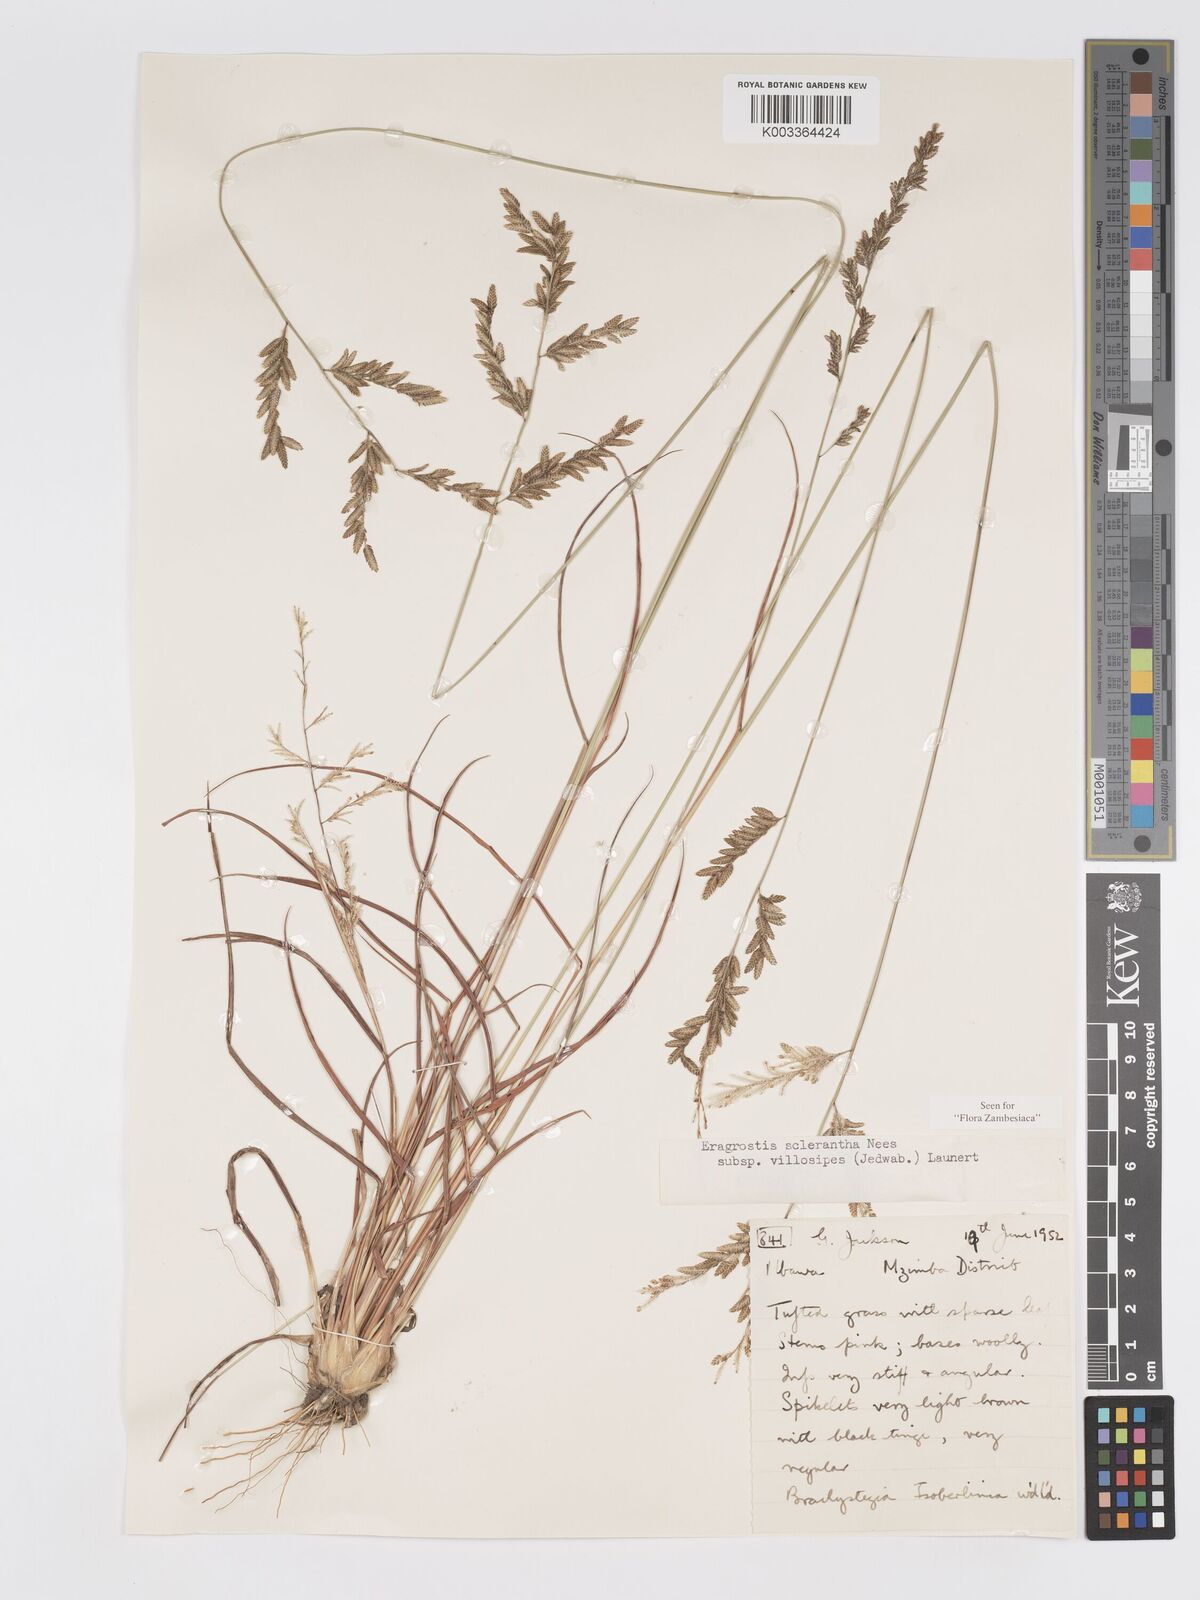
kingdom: Plantae
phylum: Tracheophyta
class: Liliopsida
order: Poales
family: Poaceae
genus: Eragrostis
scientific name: Eragrostis sclerantha
